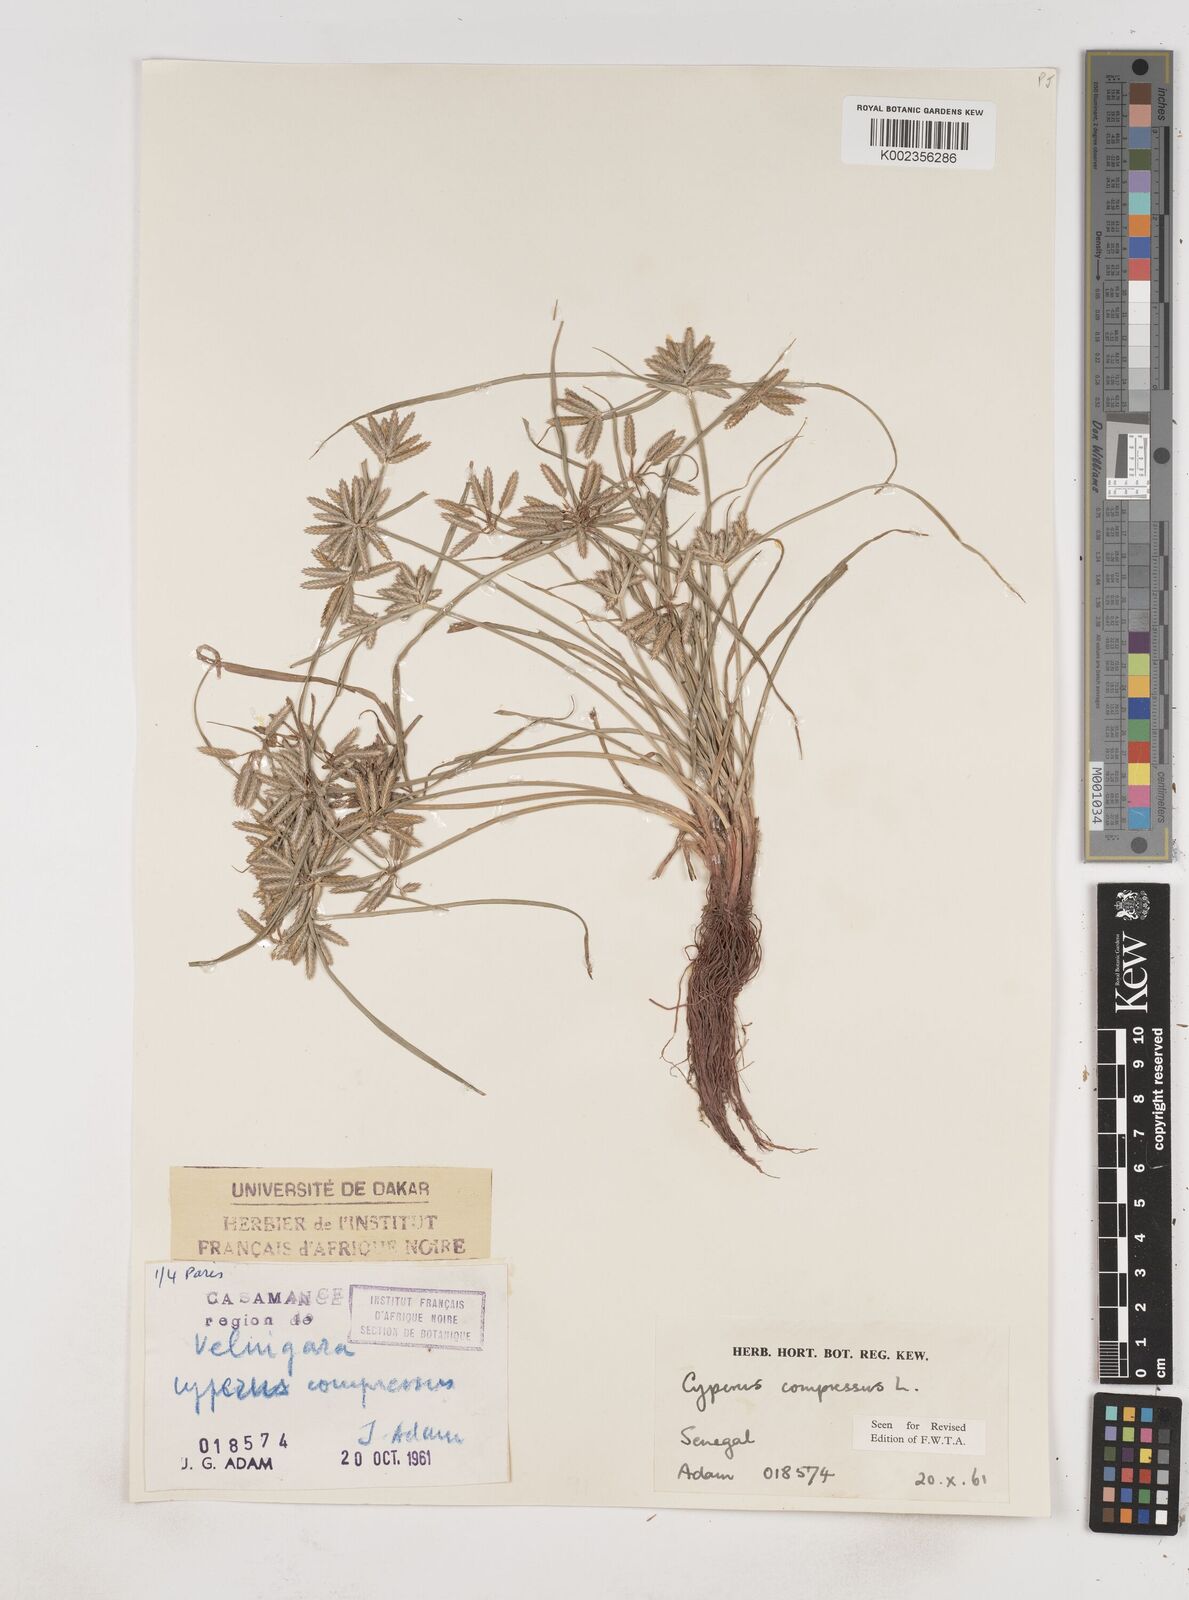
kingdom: Plantae
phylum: Tracheophyta
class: Liliopsida
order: Poales
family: Cyperaceae
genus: Cyperus
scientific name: Cyperus compressus
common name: Poorland flatsedge
